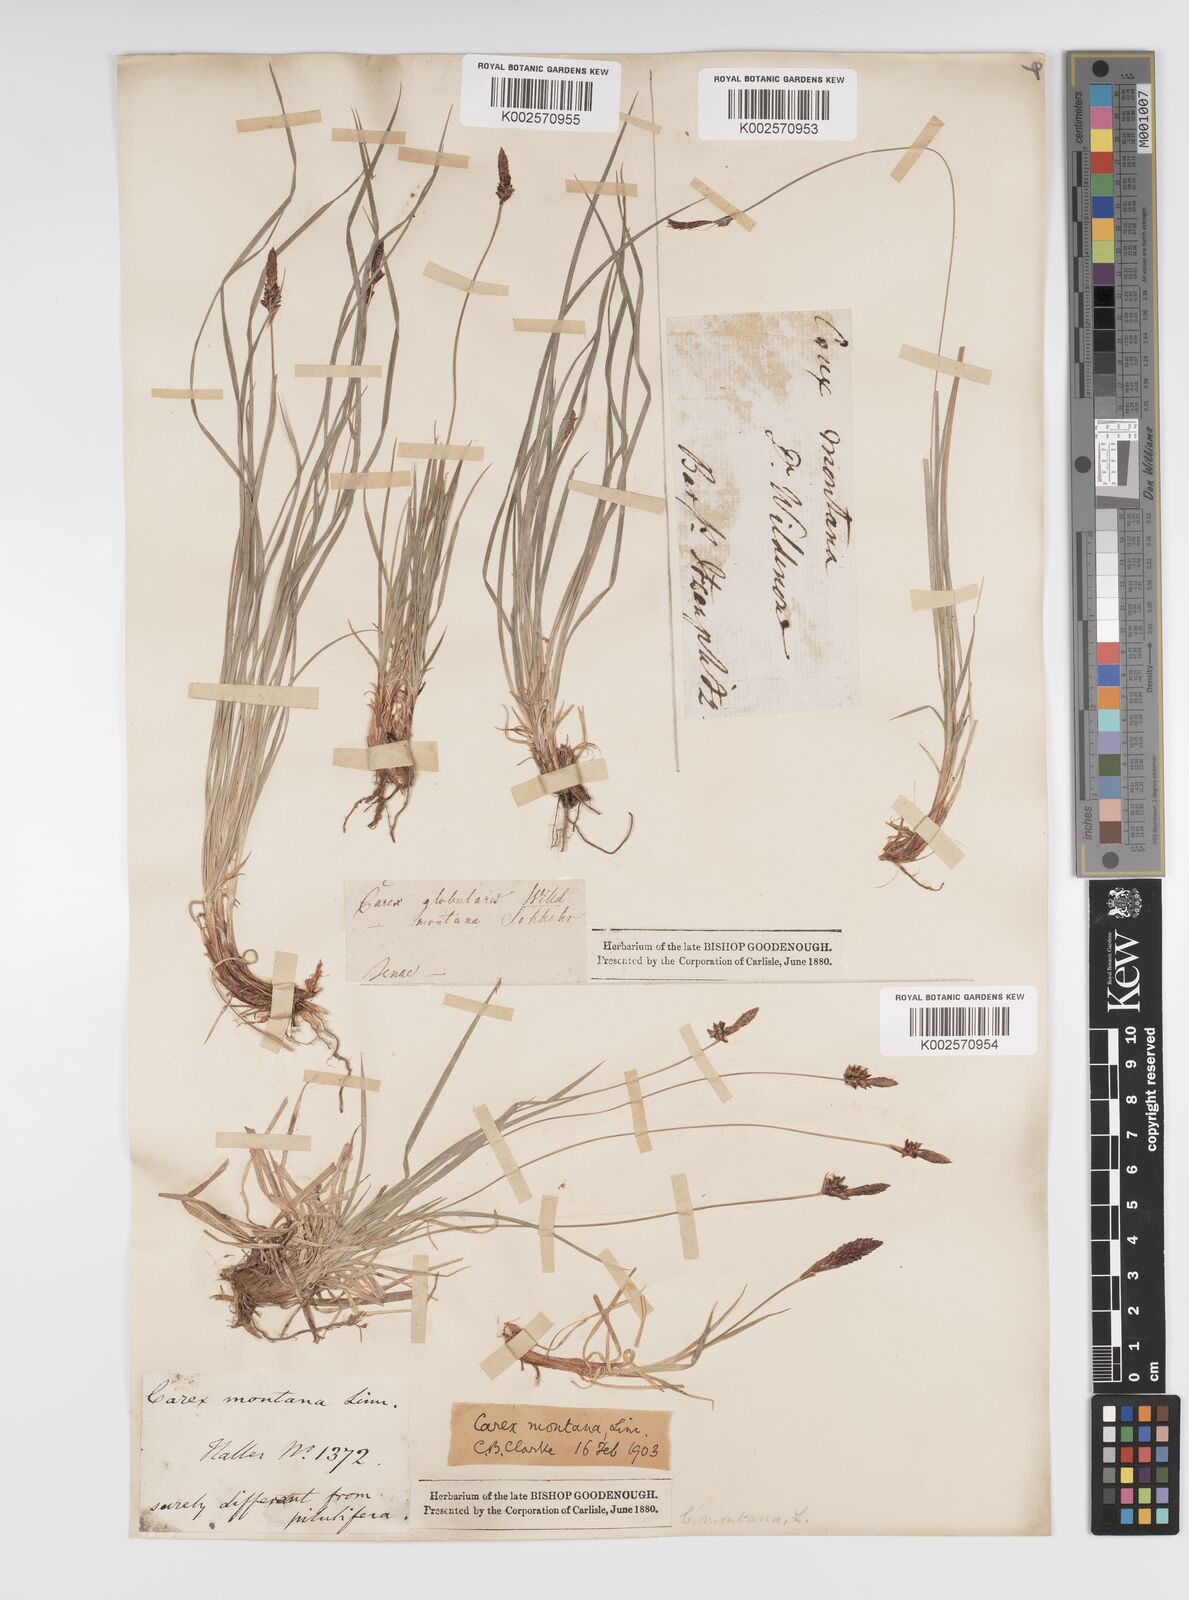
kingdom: Plantae
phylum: Tracheophyta
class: Liliopsida
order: Poales
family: Cyperaceae
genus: Carex
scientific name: Carex montana
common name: Soft-leaved sedge
